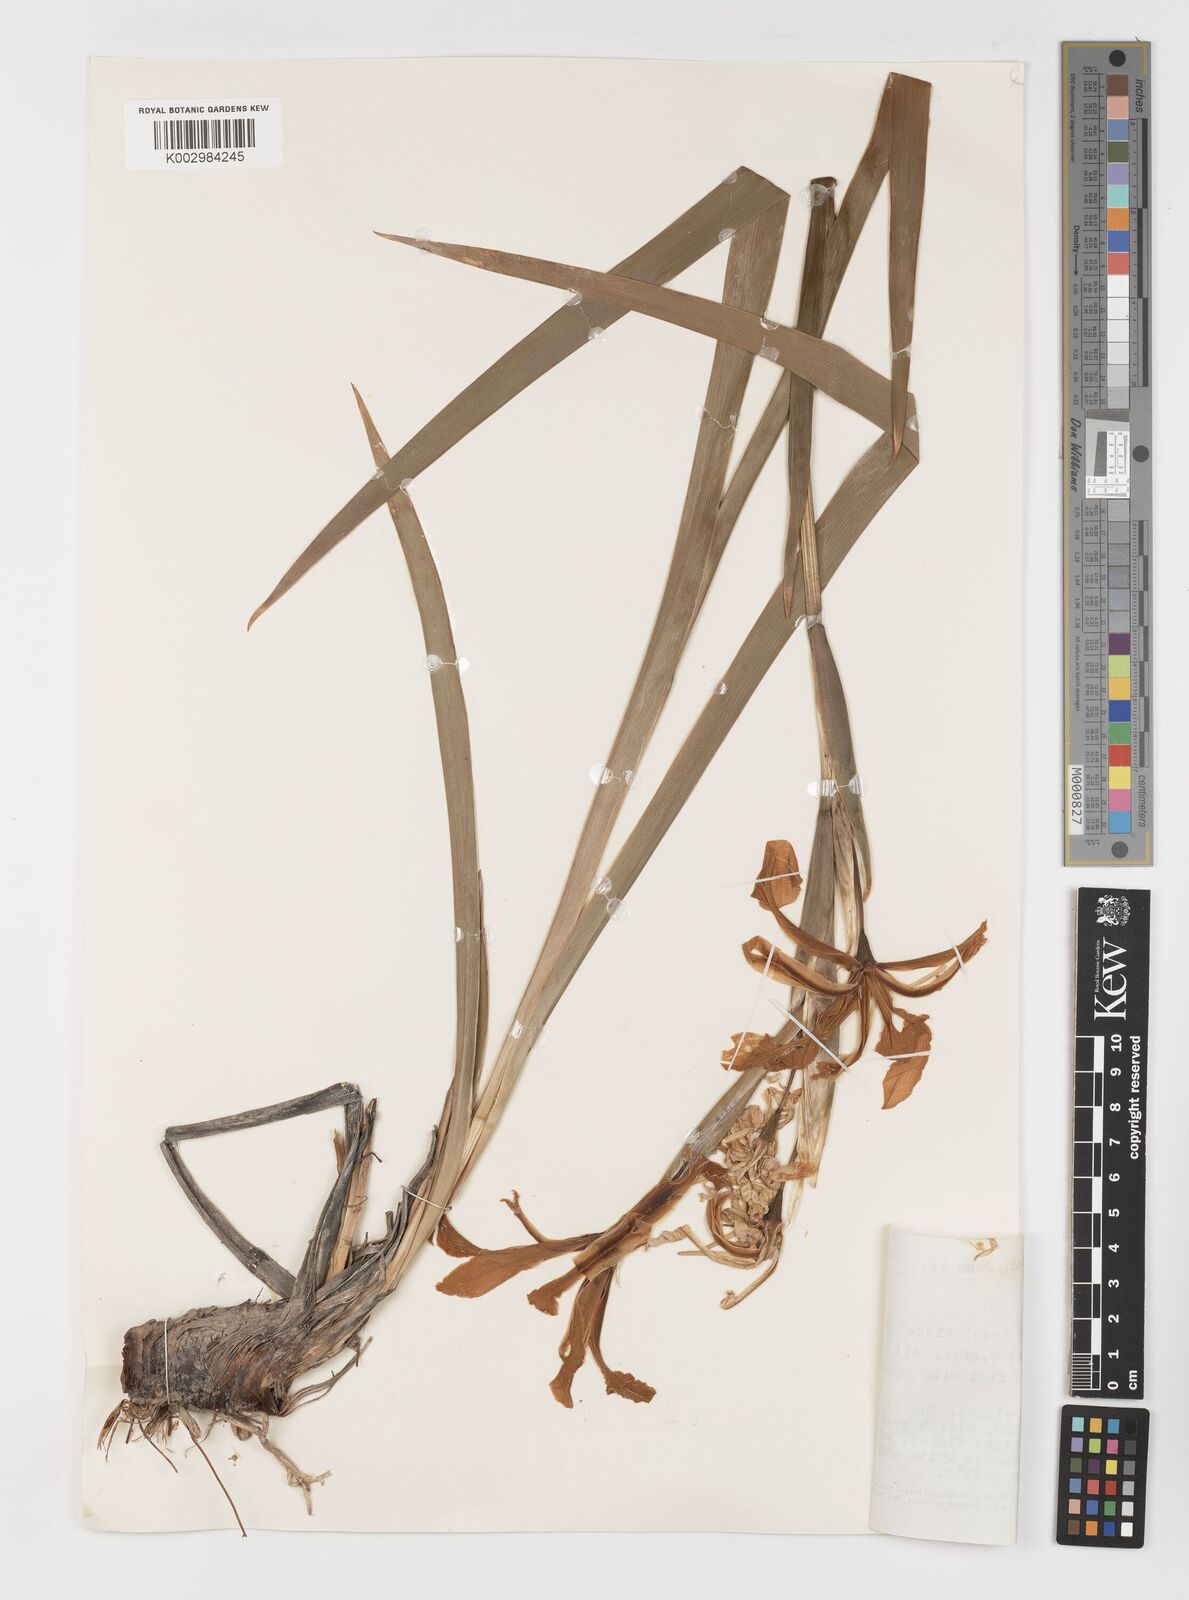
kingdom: Plantae
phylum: Tracheophyta
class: Liliopsida
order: Asparagales
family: Iridaceae
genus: Iris
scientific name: Iris spuria
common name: Blue iris
